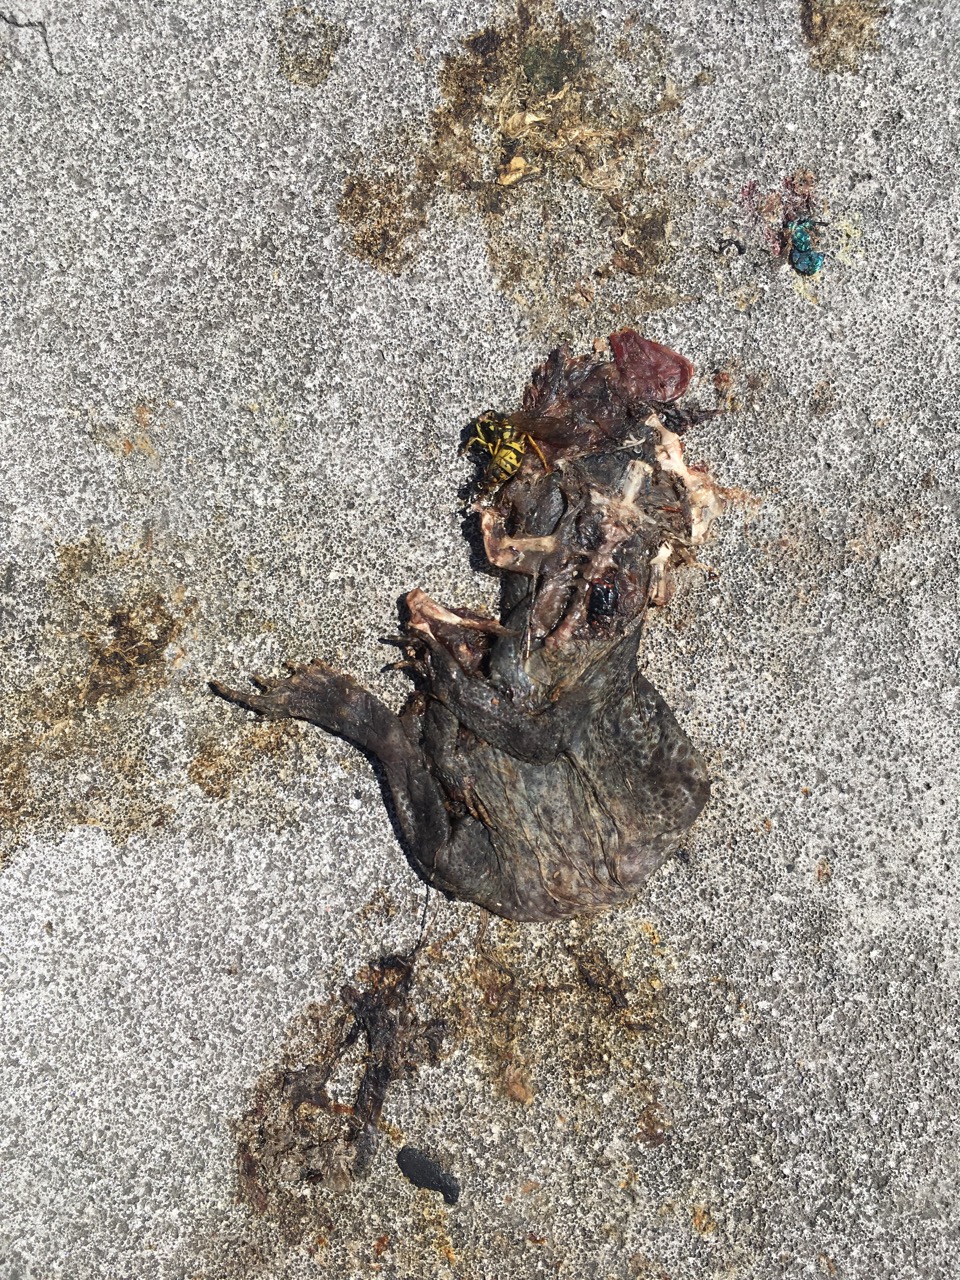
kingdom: Animalia
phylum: Chordata
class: Amphibia
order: Anura
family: Bufonidae
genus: Bufo
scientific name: Bufo bufo
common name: Common toad
